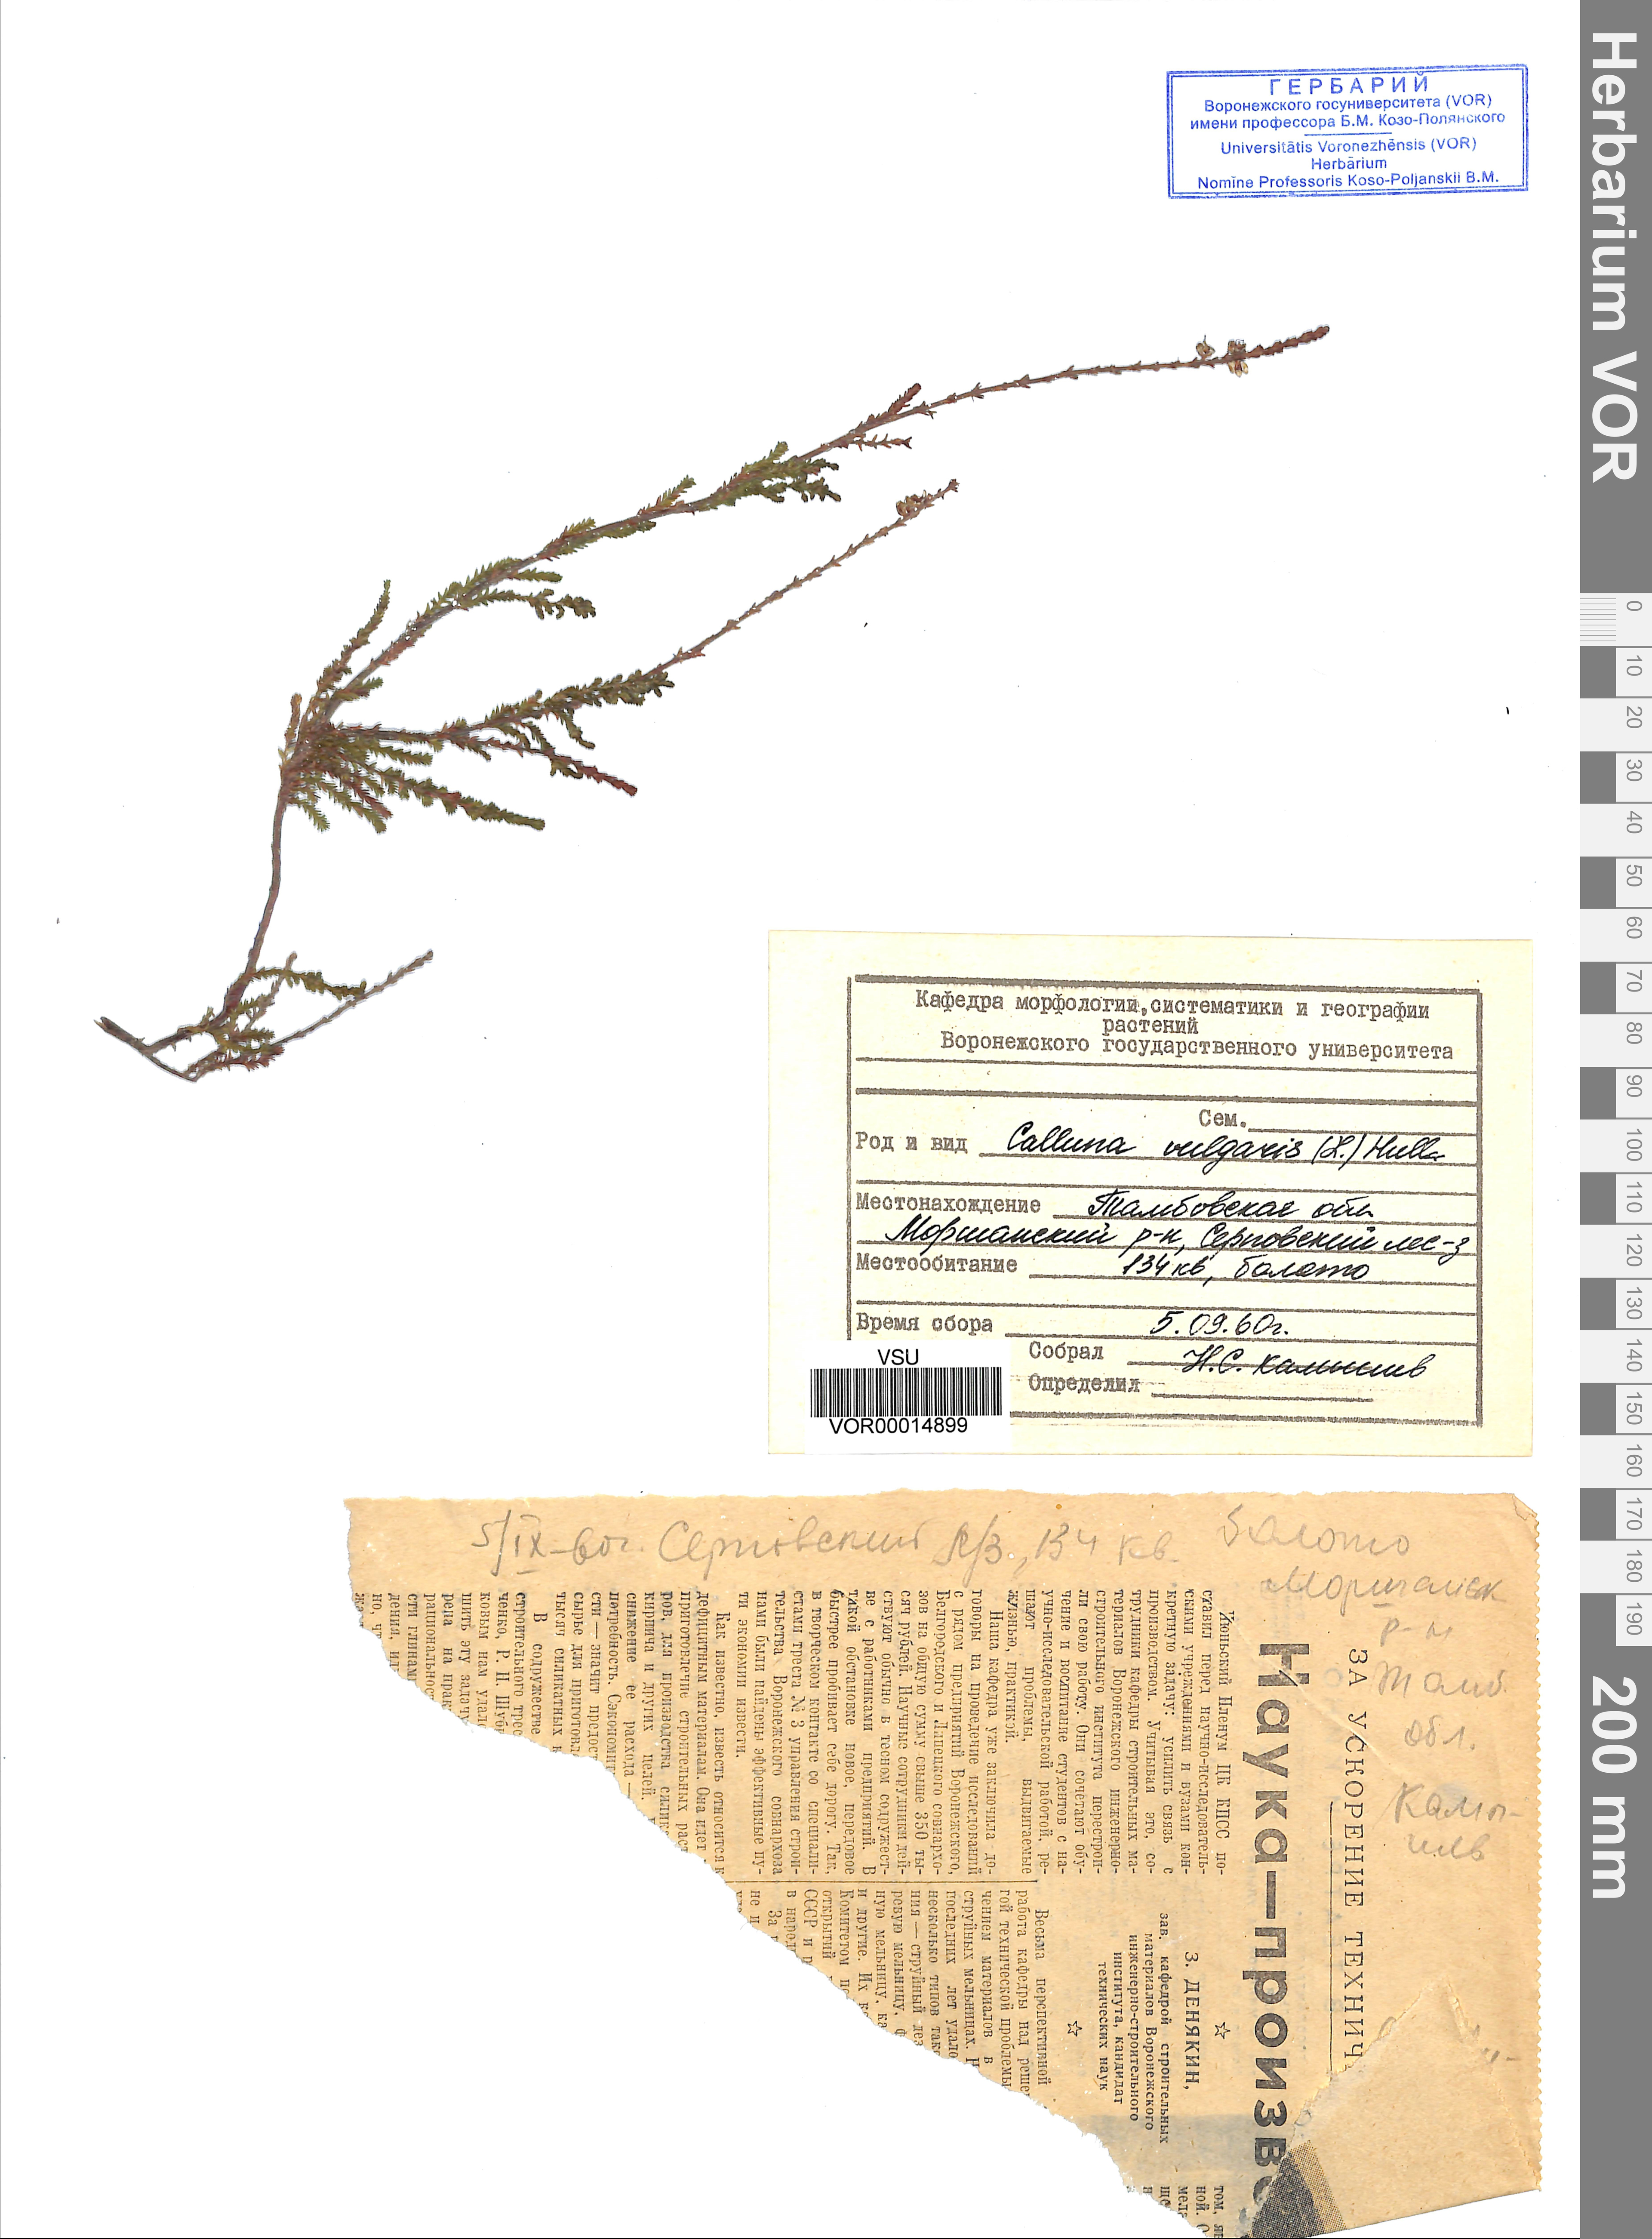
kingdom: Plantae
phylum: Tracheophyta
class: Magnoliopsida
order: Ericales
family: Ericaceae
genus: Calluna
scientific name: Calluna vulgaris
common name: Heather
